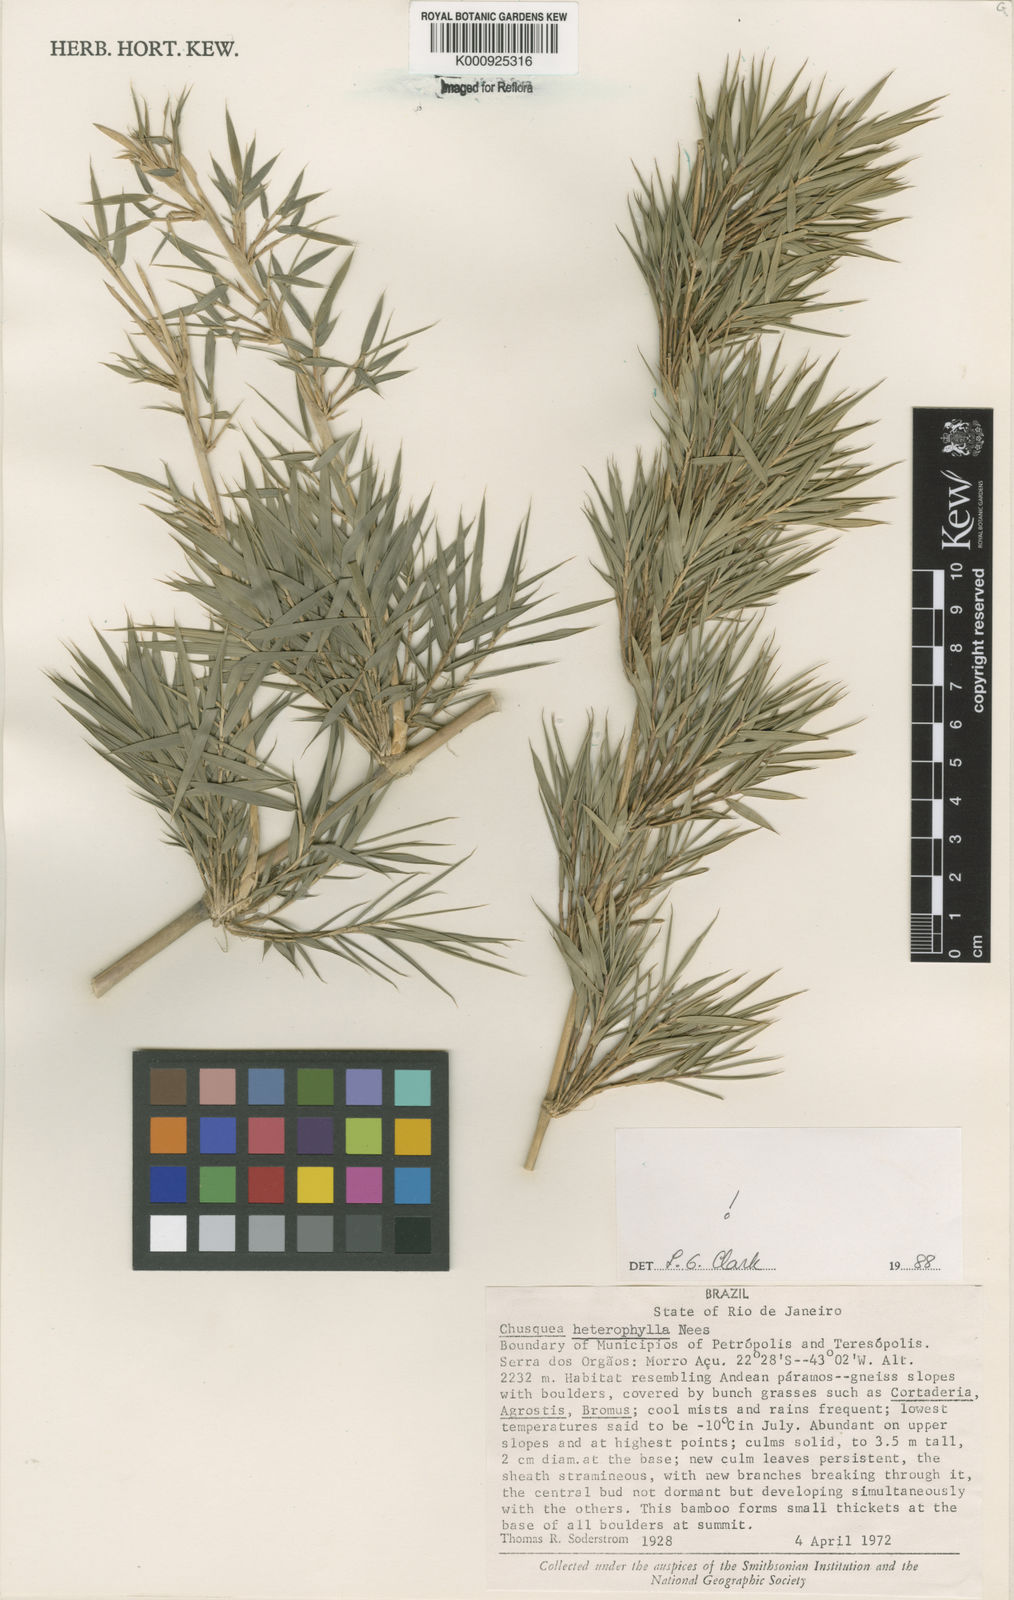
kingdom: Plantae
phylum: Tracheophyta
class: Liliopsida
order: Poales
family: Poaceae
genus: Chusquea
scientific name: Chusquea heterophylla
